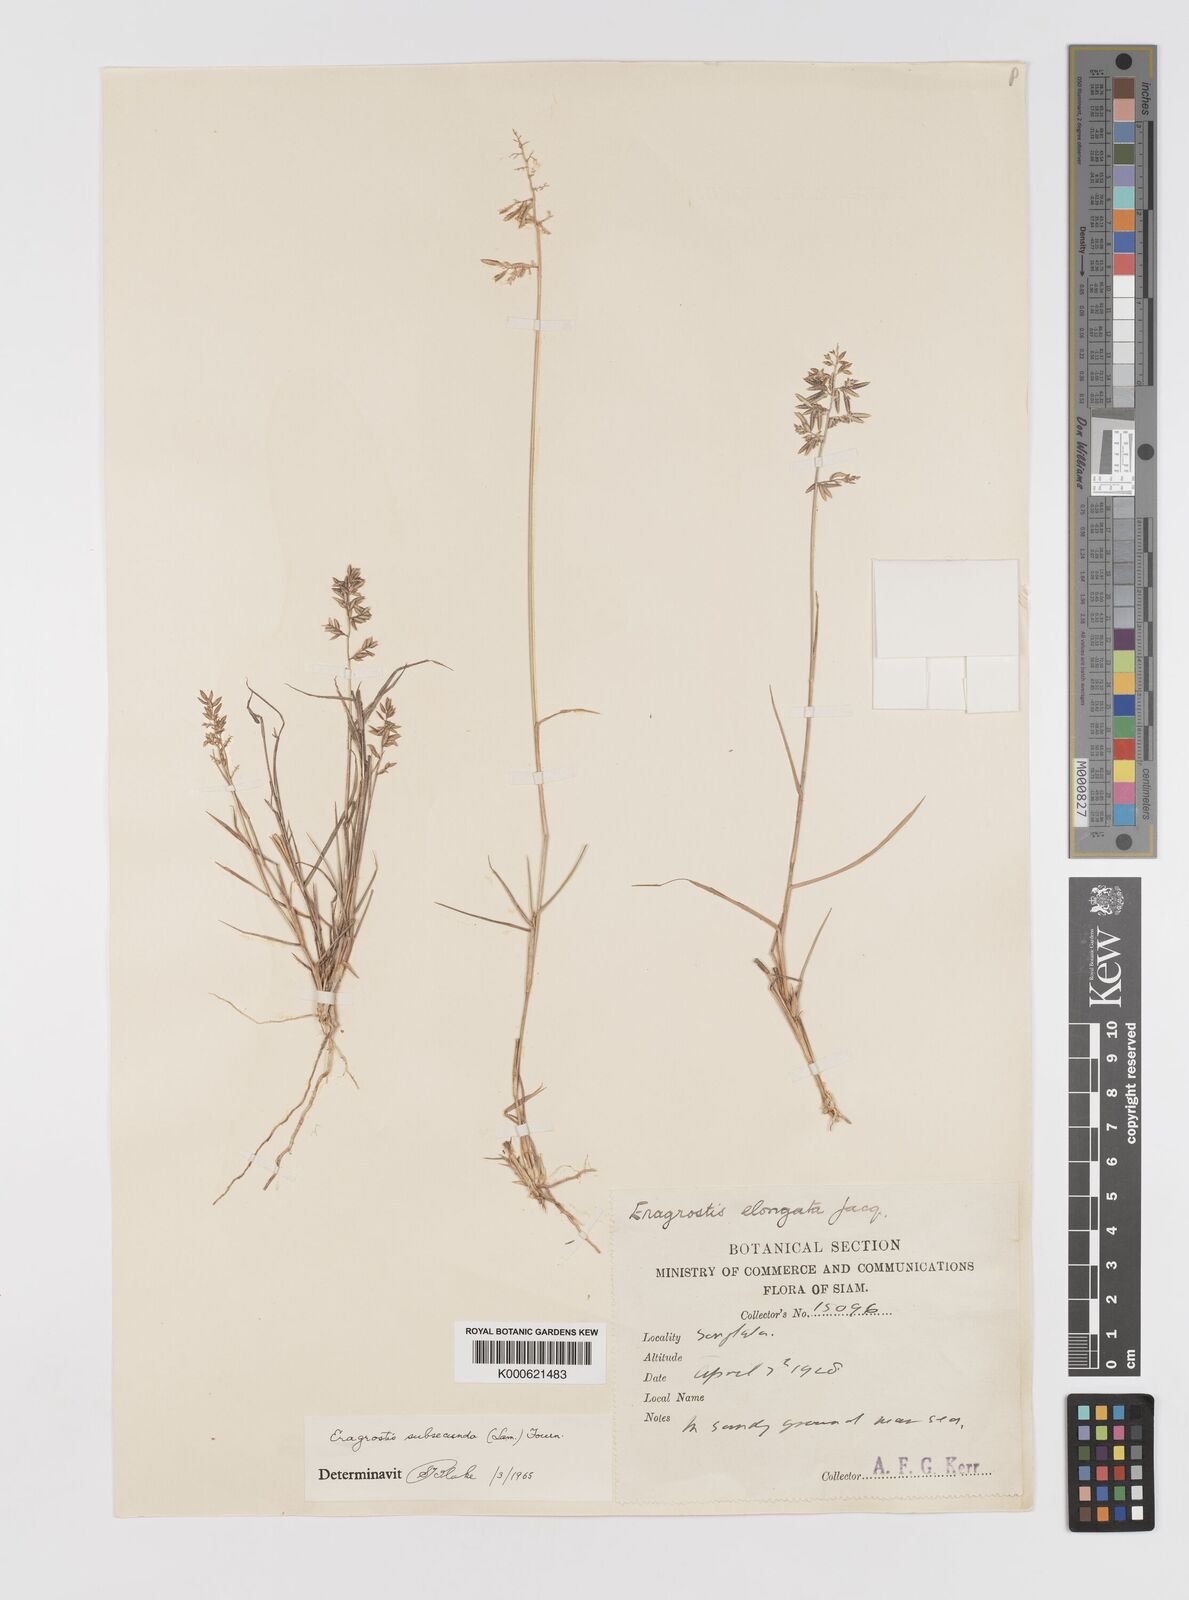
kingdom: Plantae
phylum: Tracheophyta
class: Liliopsida
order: Poales
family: Poaceae
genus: Eragrostis
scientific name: Eragrostis subsecunda
